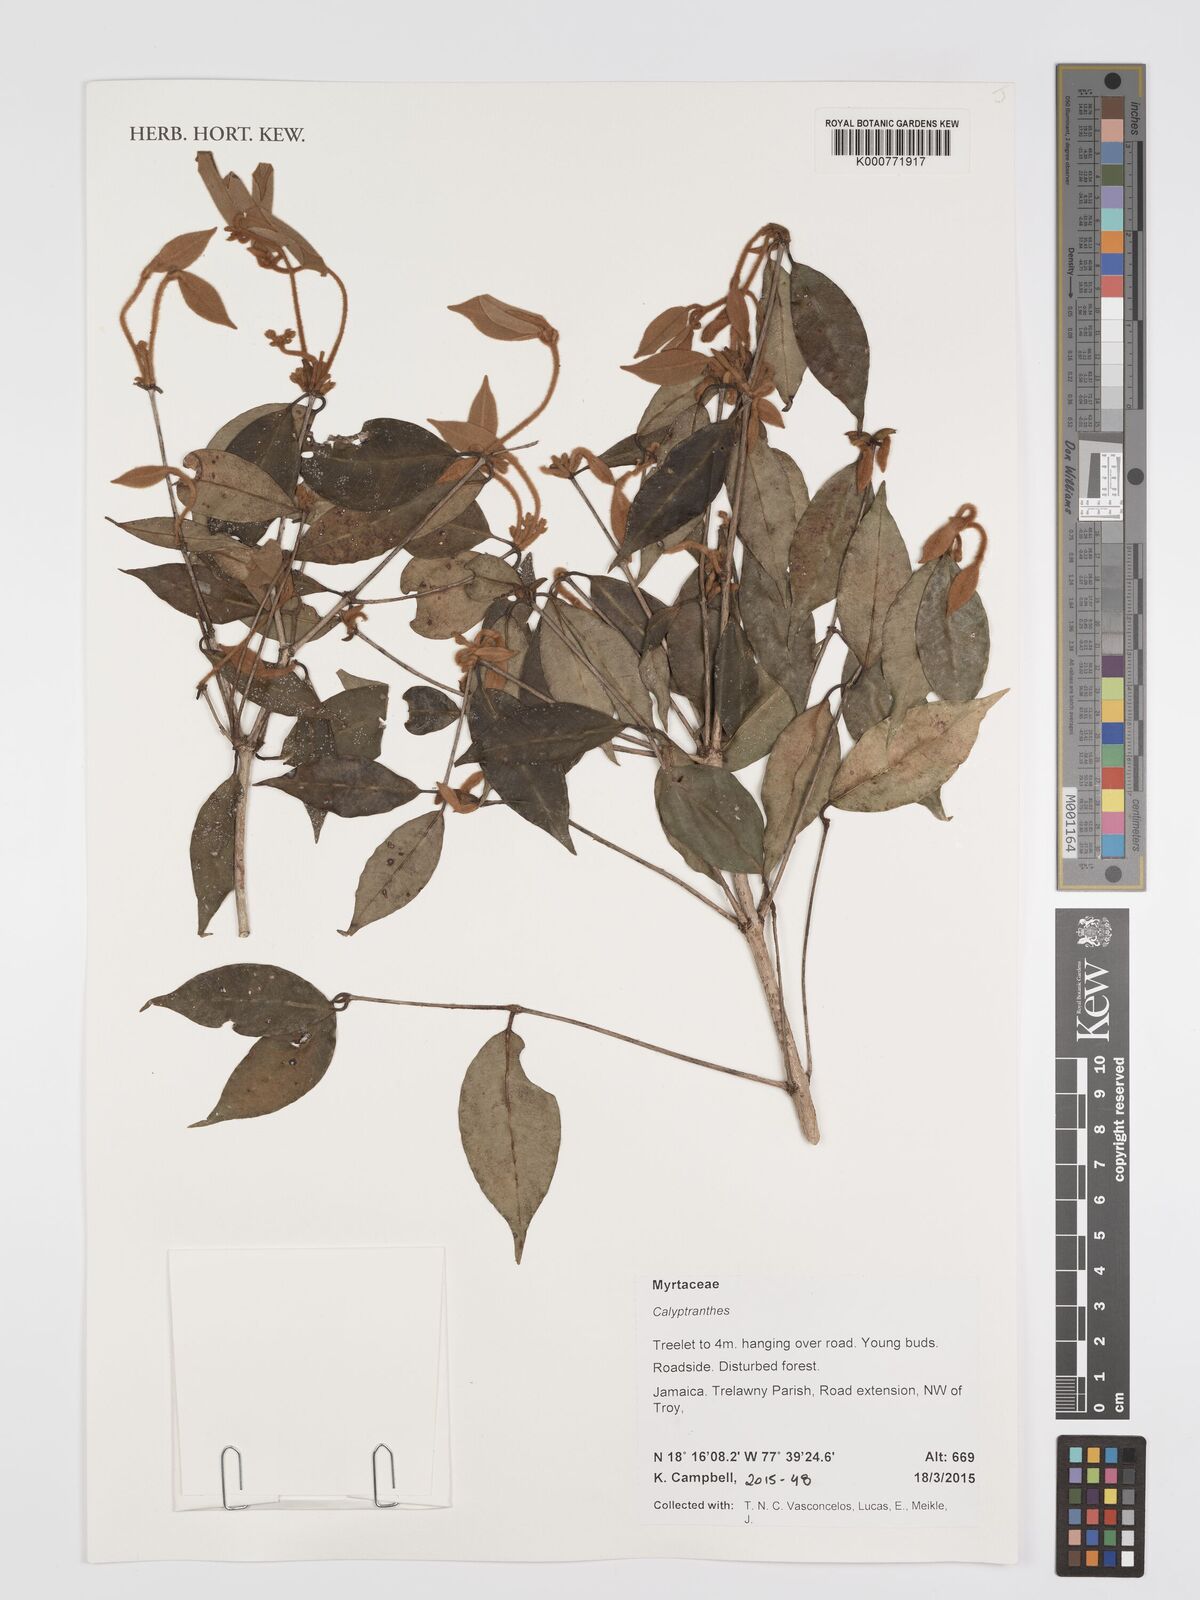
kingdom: Plantae
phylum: Tracheophyta
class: Magnoliopsida
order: Myrtales
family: Myrtaceae
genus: Calyptranthes
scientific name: Calyptranthes
